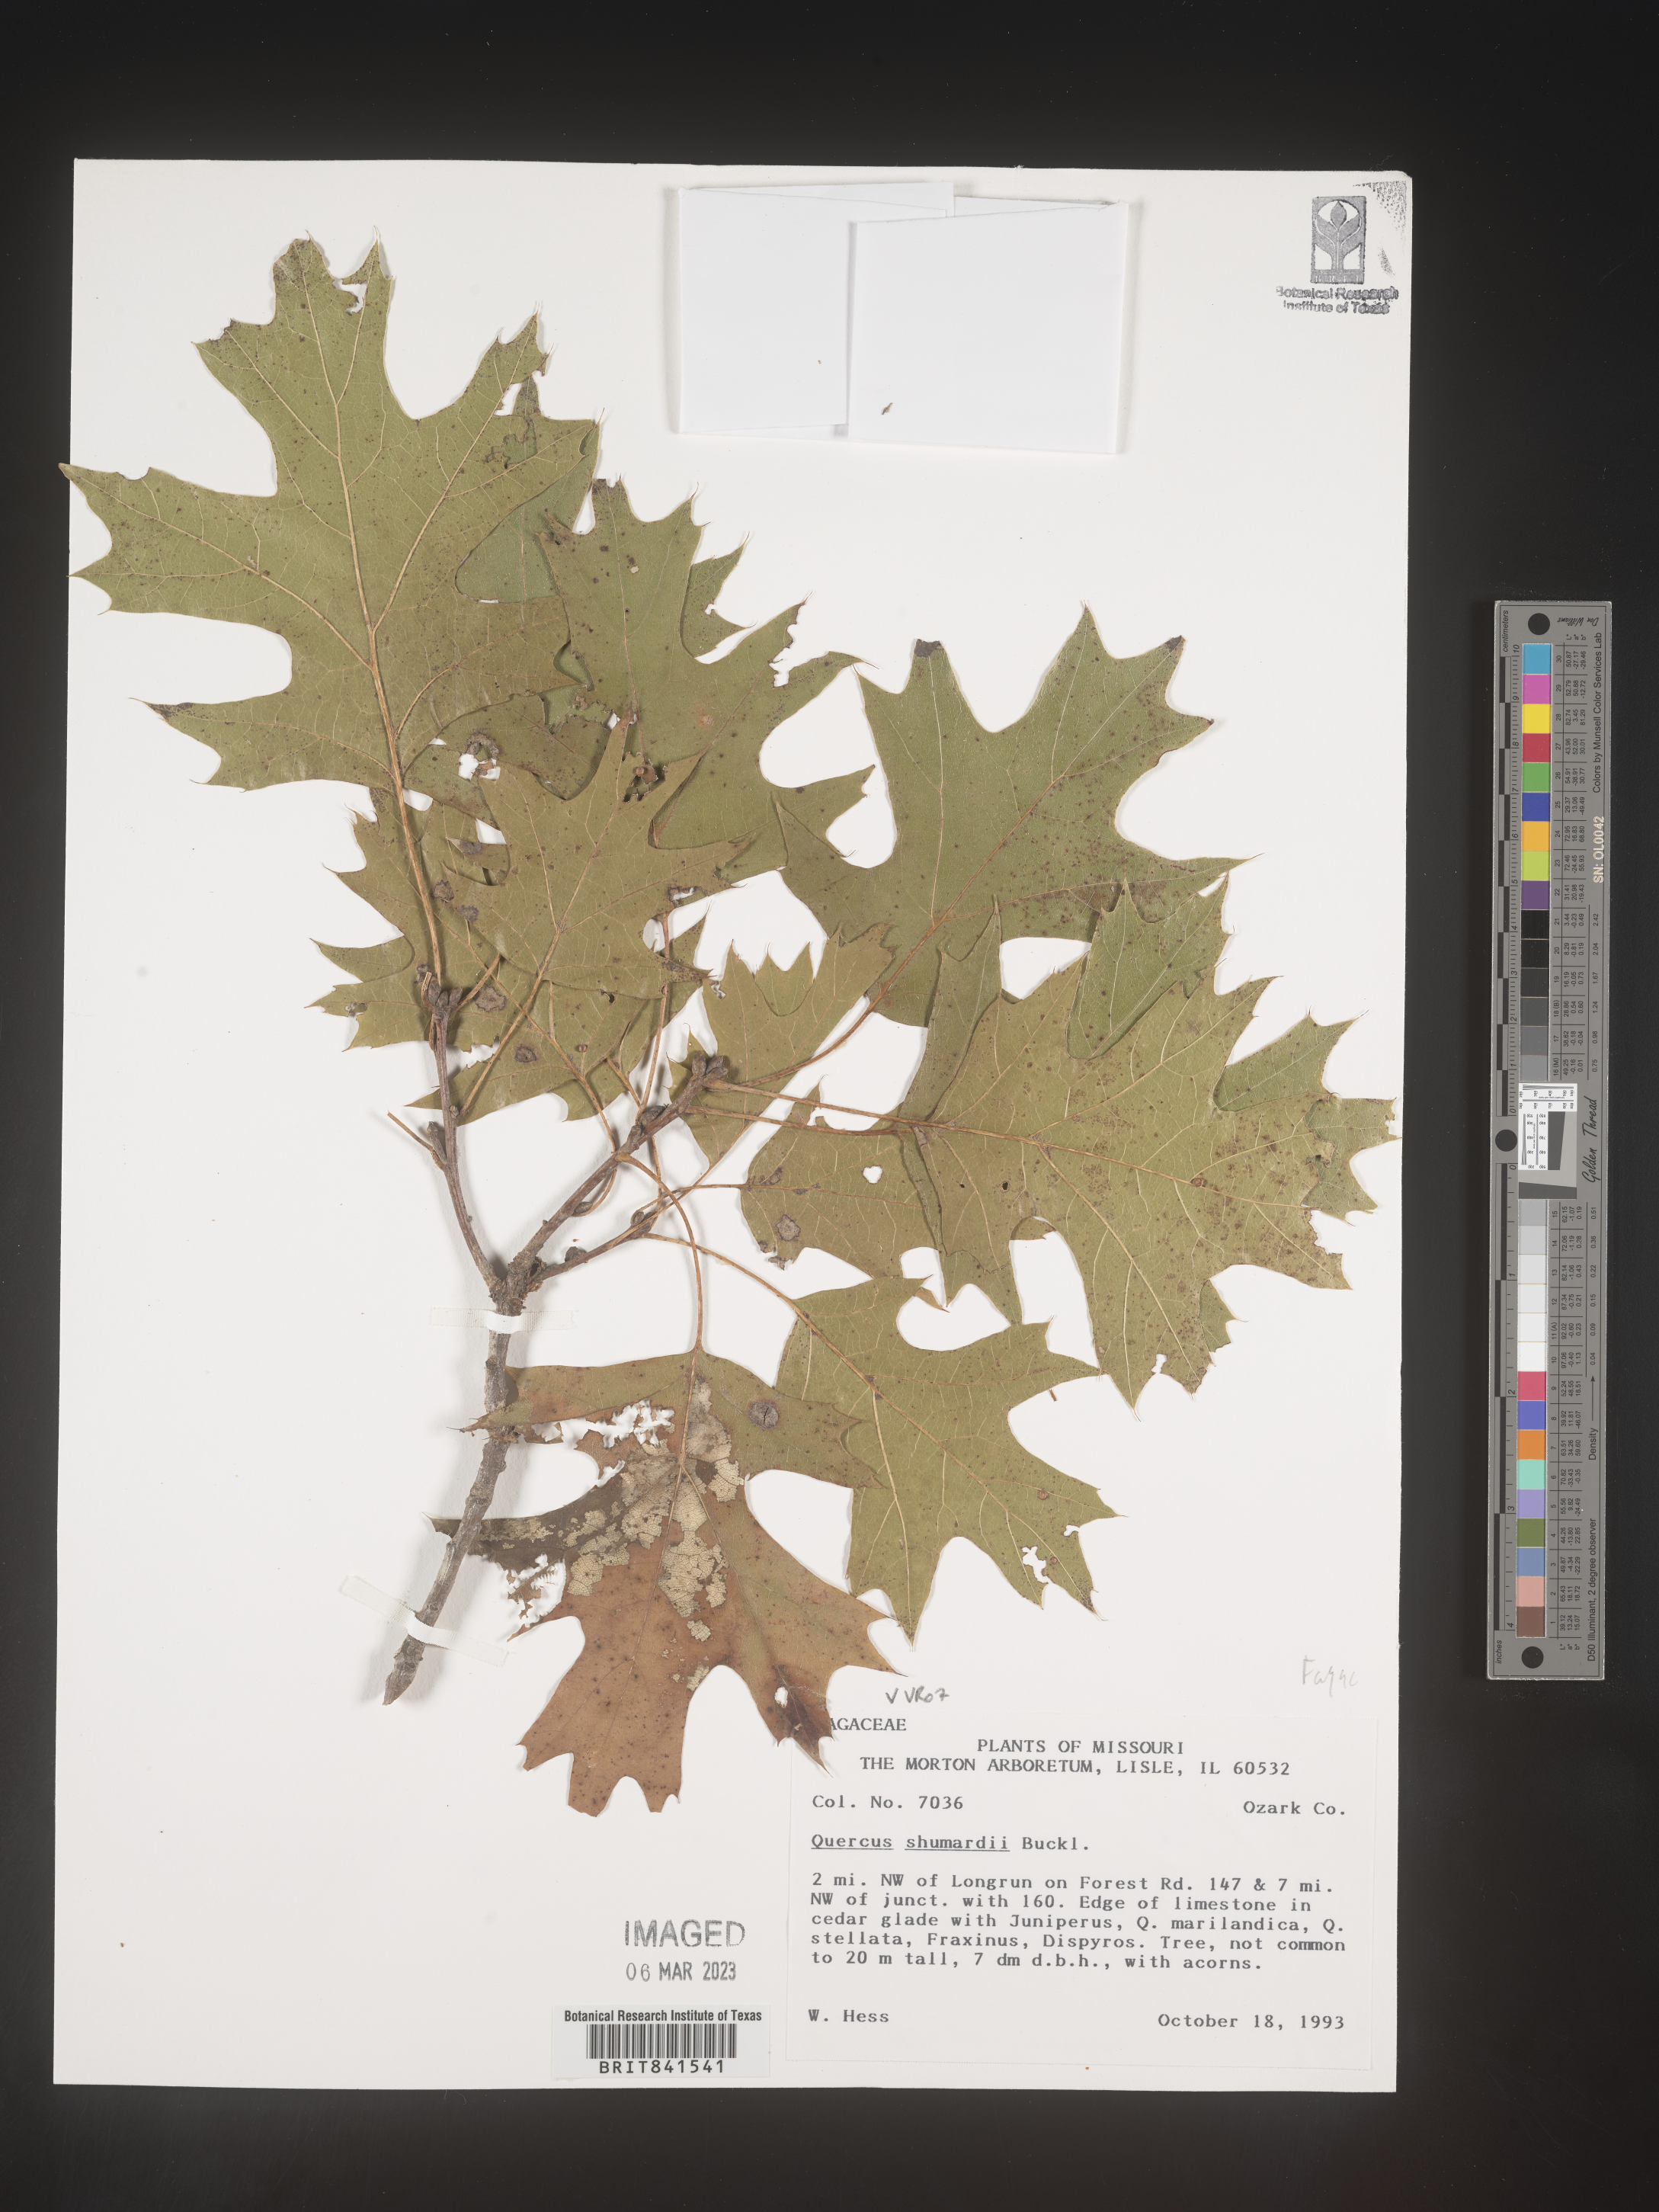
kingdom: Plantae
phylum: Tracheophyta
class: Magnoliopsida
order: Fagales
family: Fagaceae
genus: Quercus
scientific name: Quercus shumardii
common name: Shumard oak
